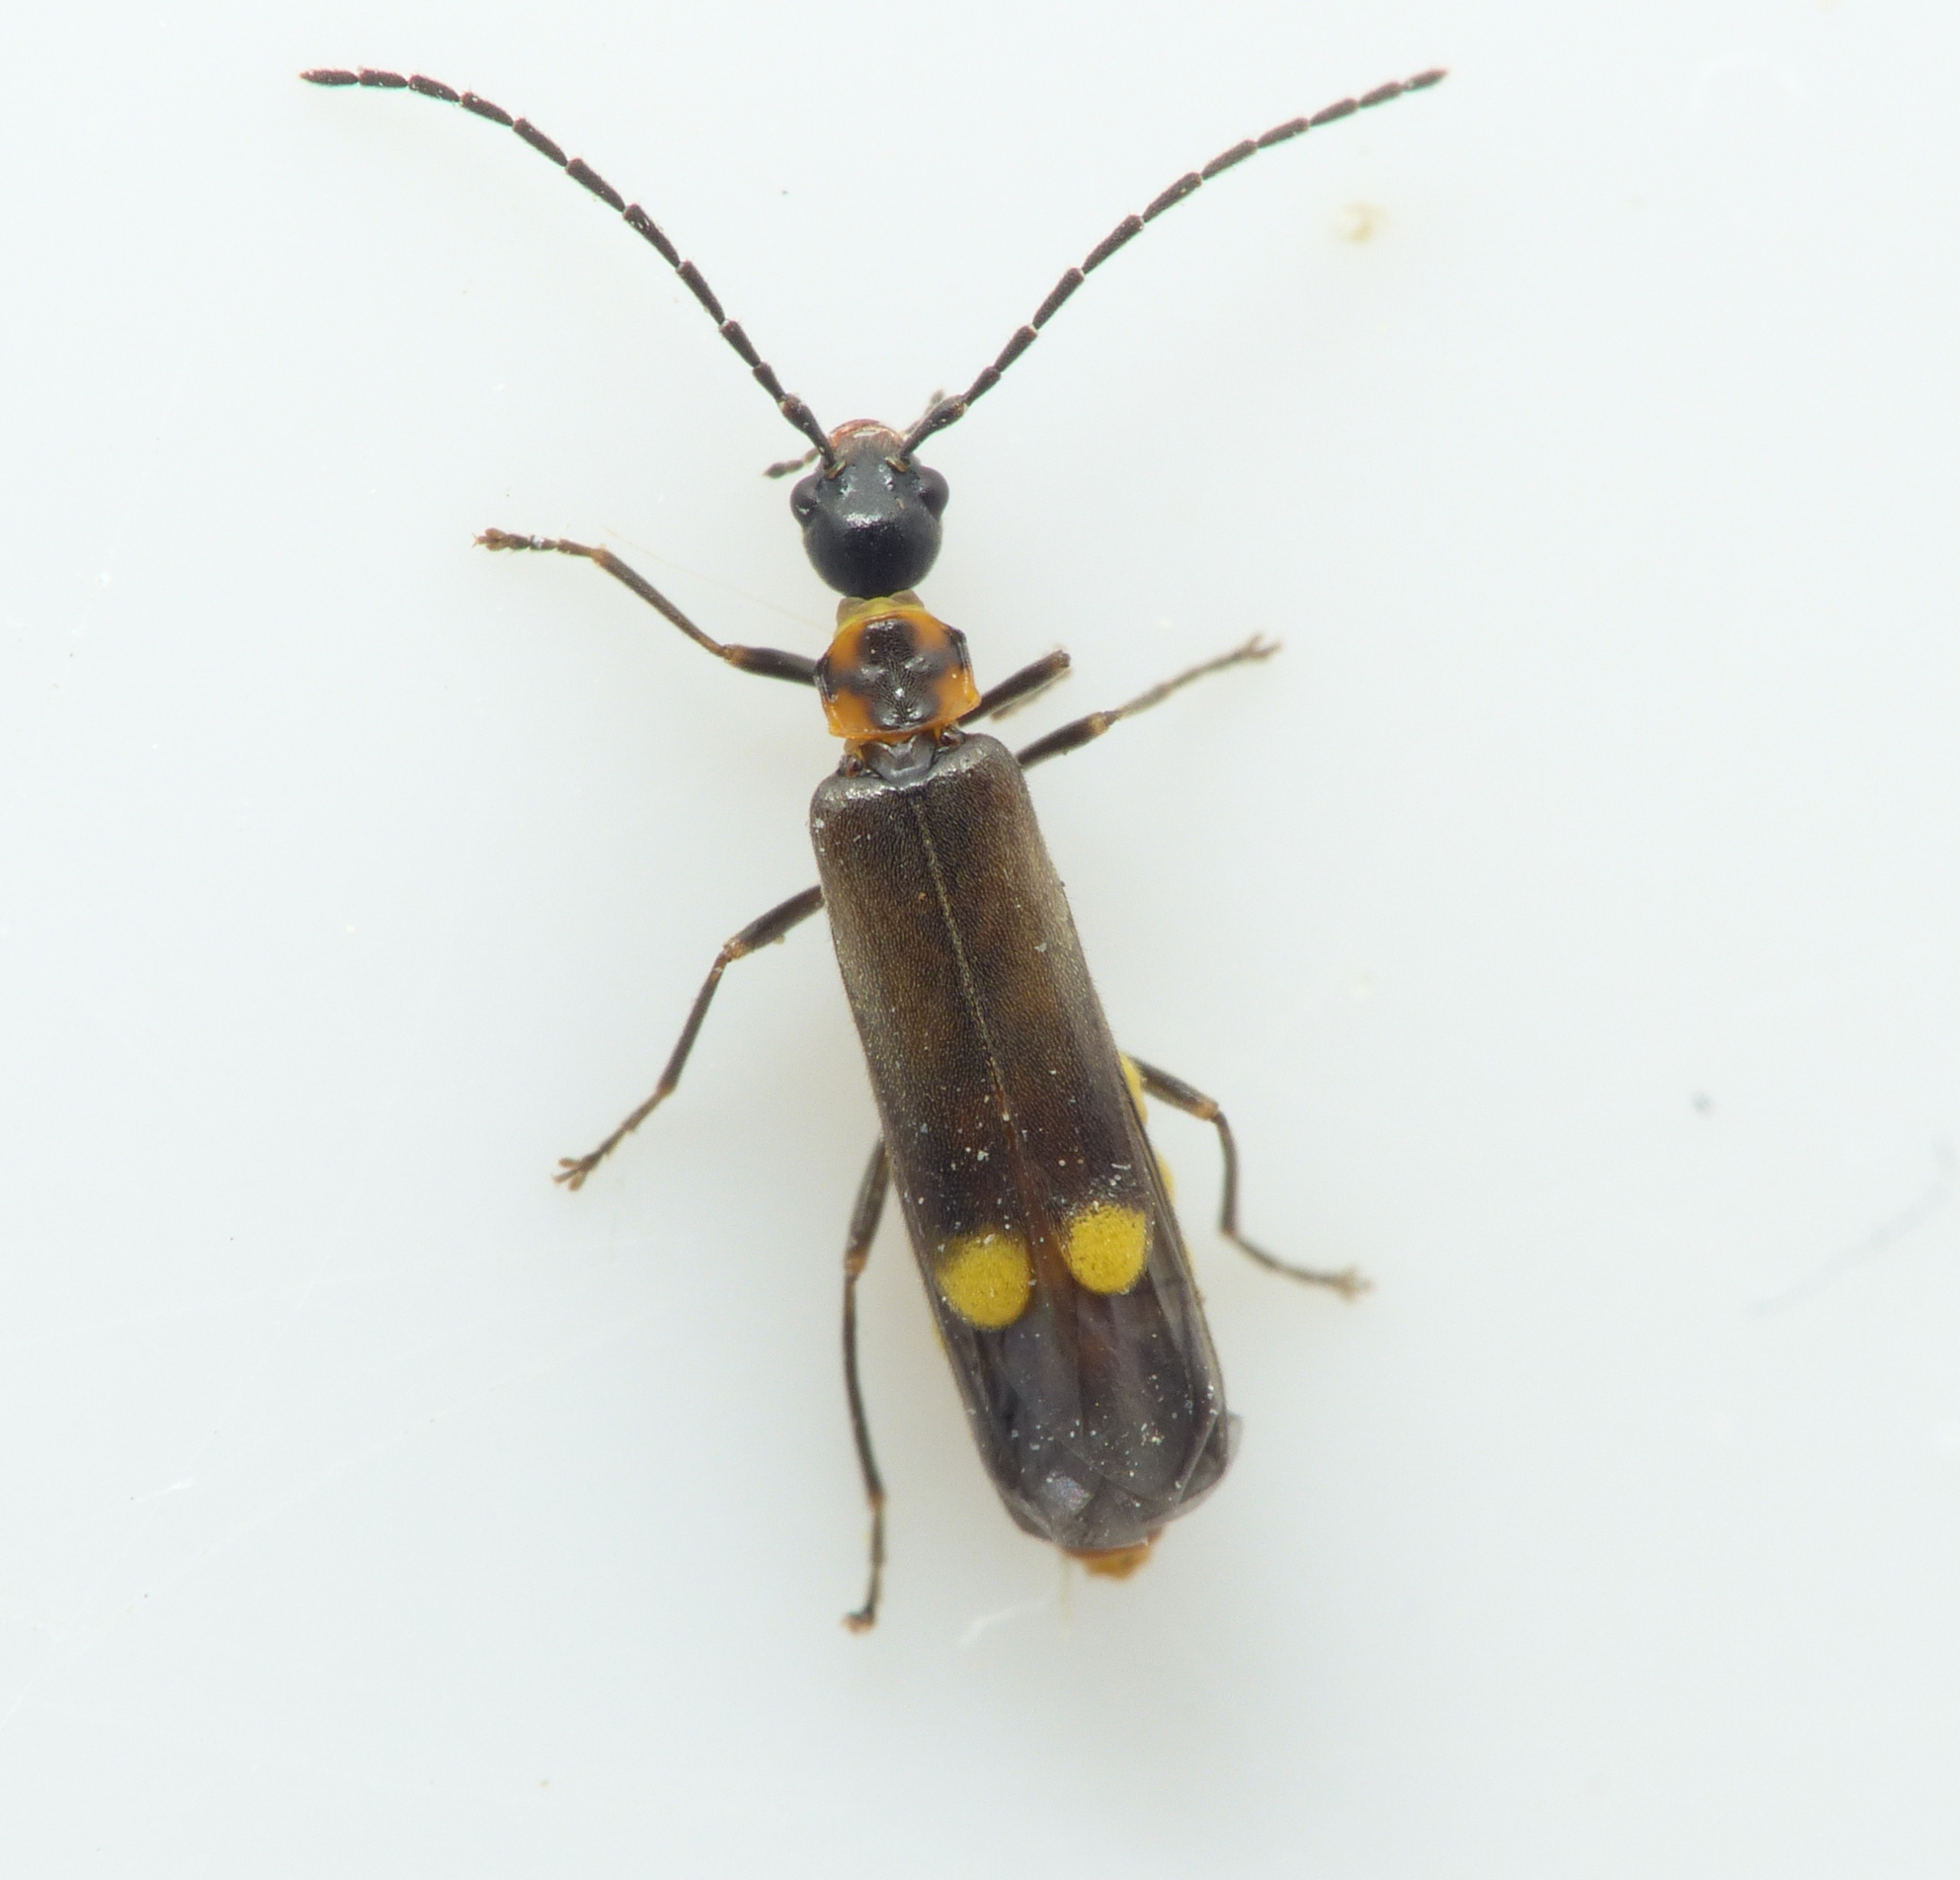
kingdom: Animalia
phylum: Arthropoda
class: Insecta
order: Coleoptera
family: Cantharidae
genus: Malthodes
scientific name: Malthodes marginatus
